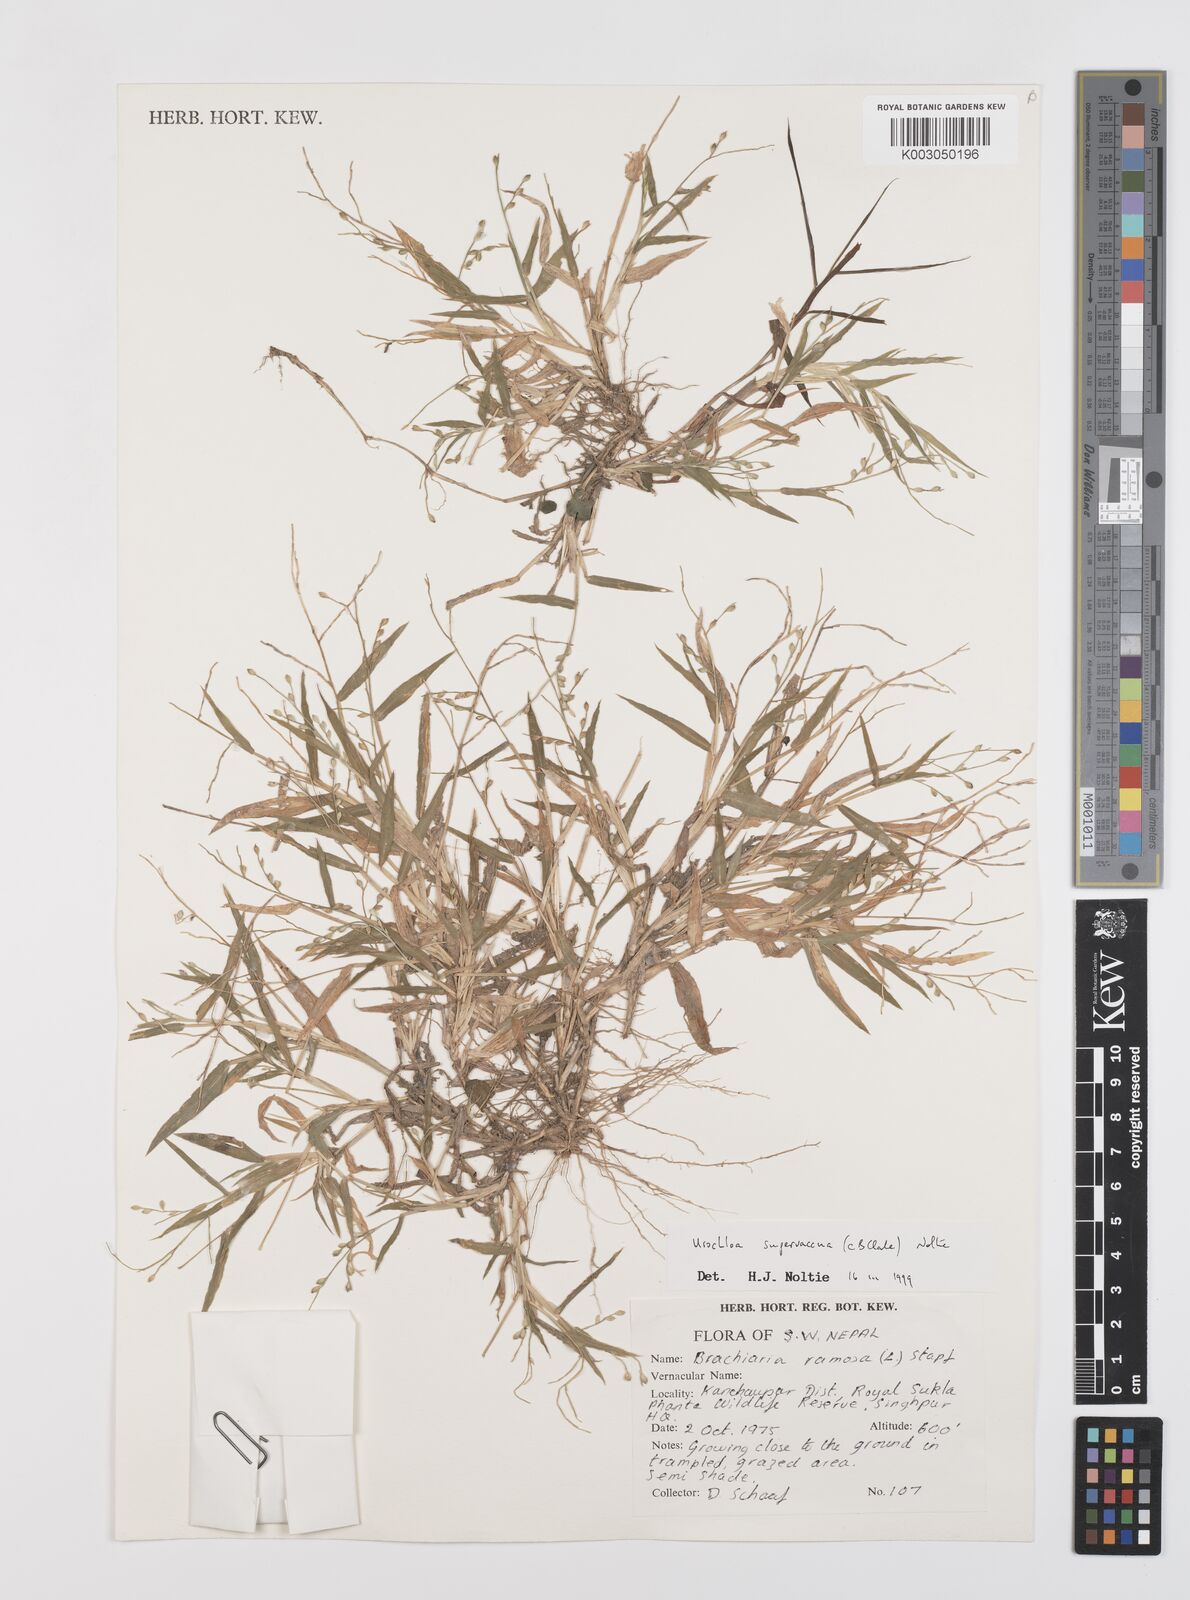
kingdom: Plantae
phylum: Tracheophyta
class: Liliopsida
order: Poales
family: Poaceae
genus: Urochloa
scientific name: Urochloa ramosa
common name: Browntop millet
